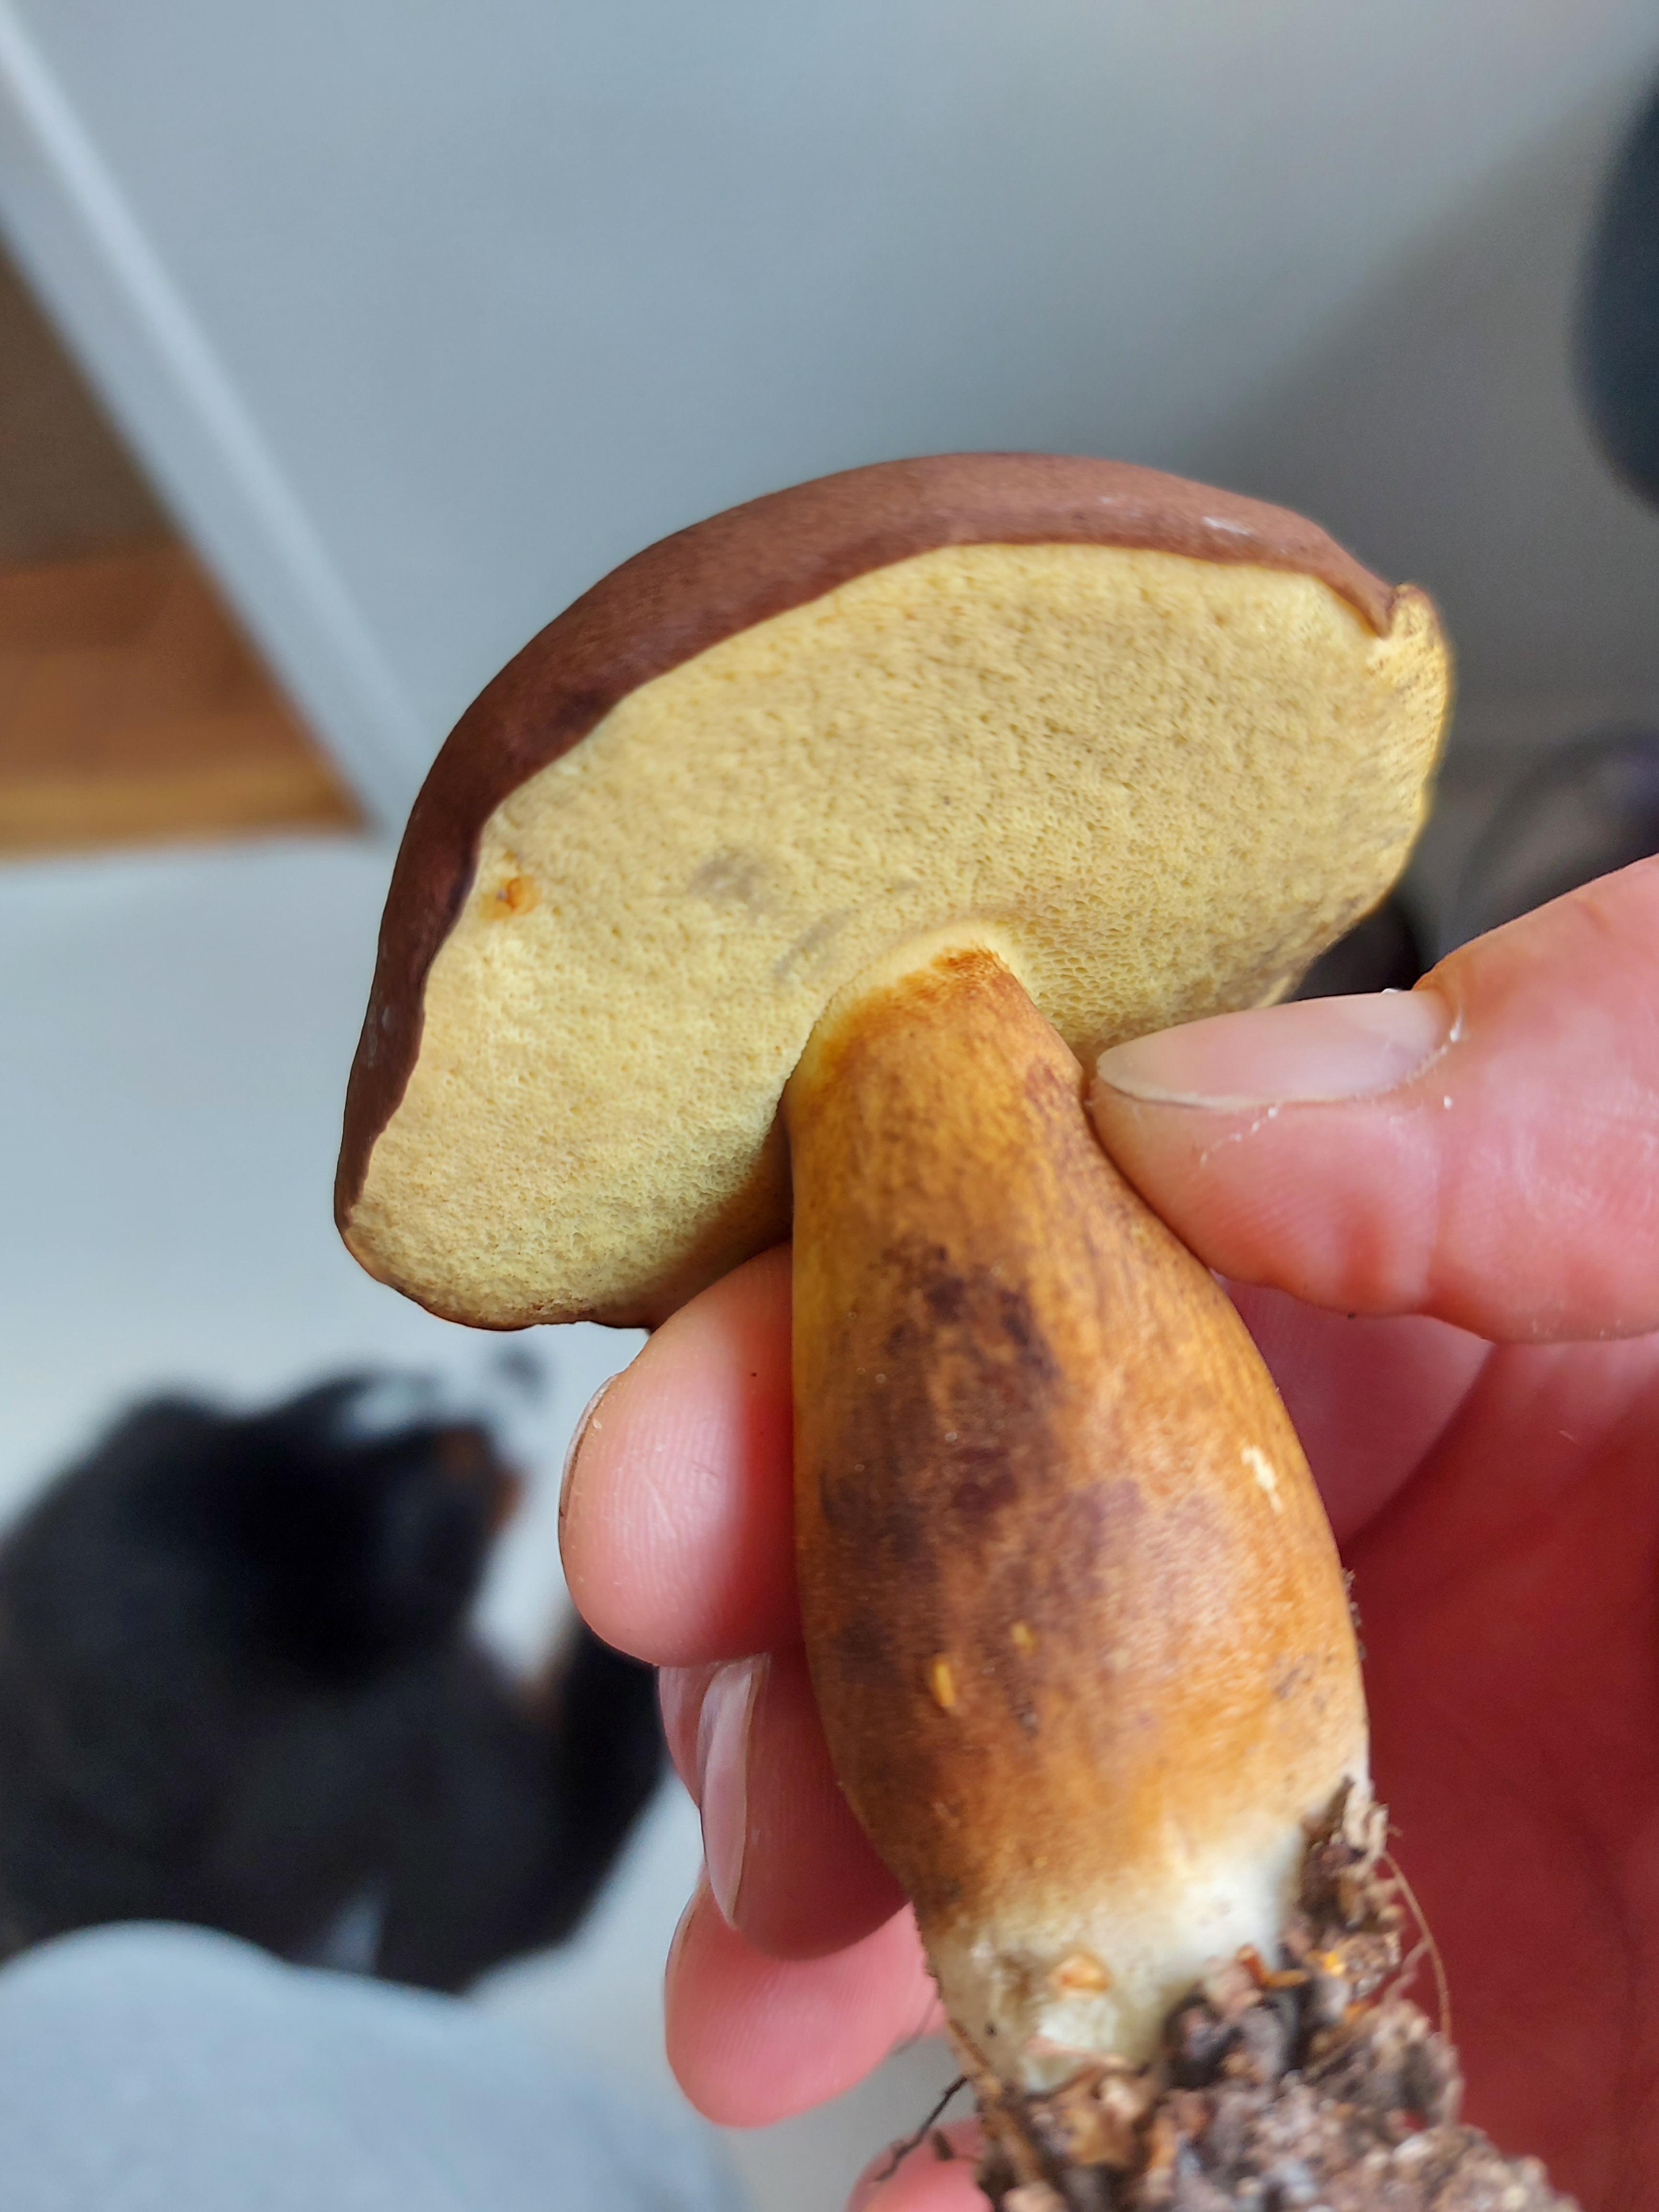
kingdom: Fungi
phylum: Basidiomycota
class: Agaricomycetes
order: Boletales
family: Boletaceae
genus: Imleria
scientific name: Imleria badia
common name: brunstokket rørhat
